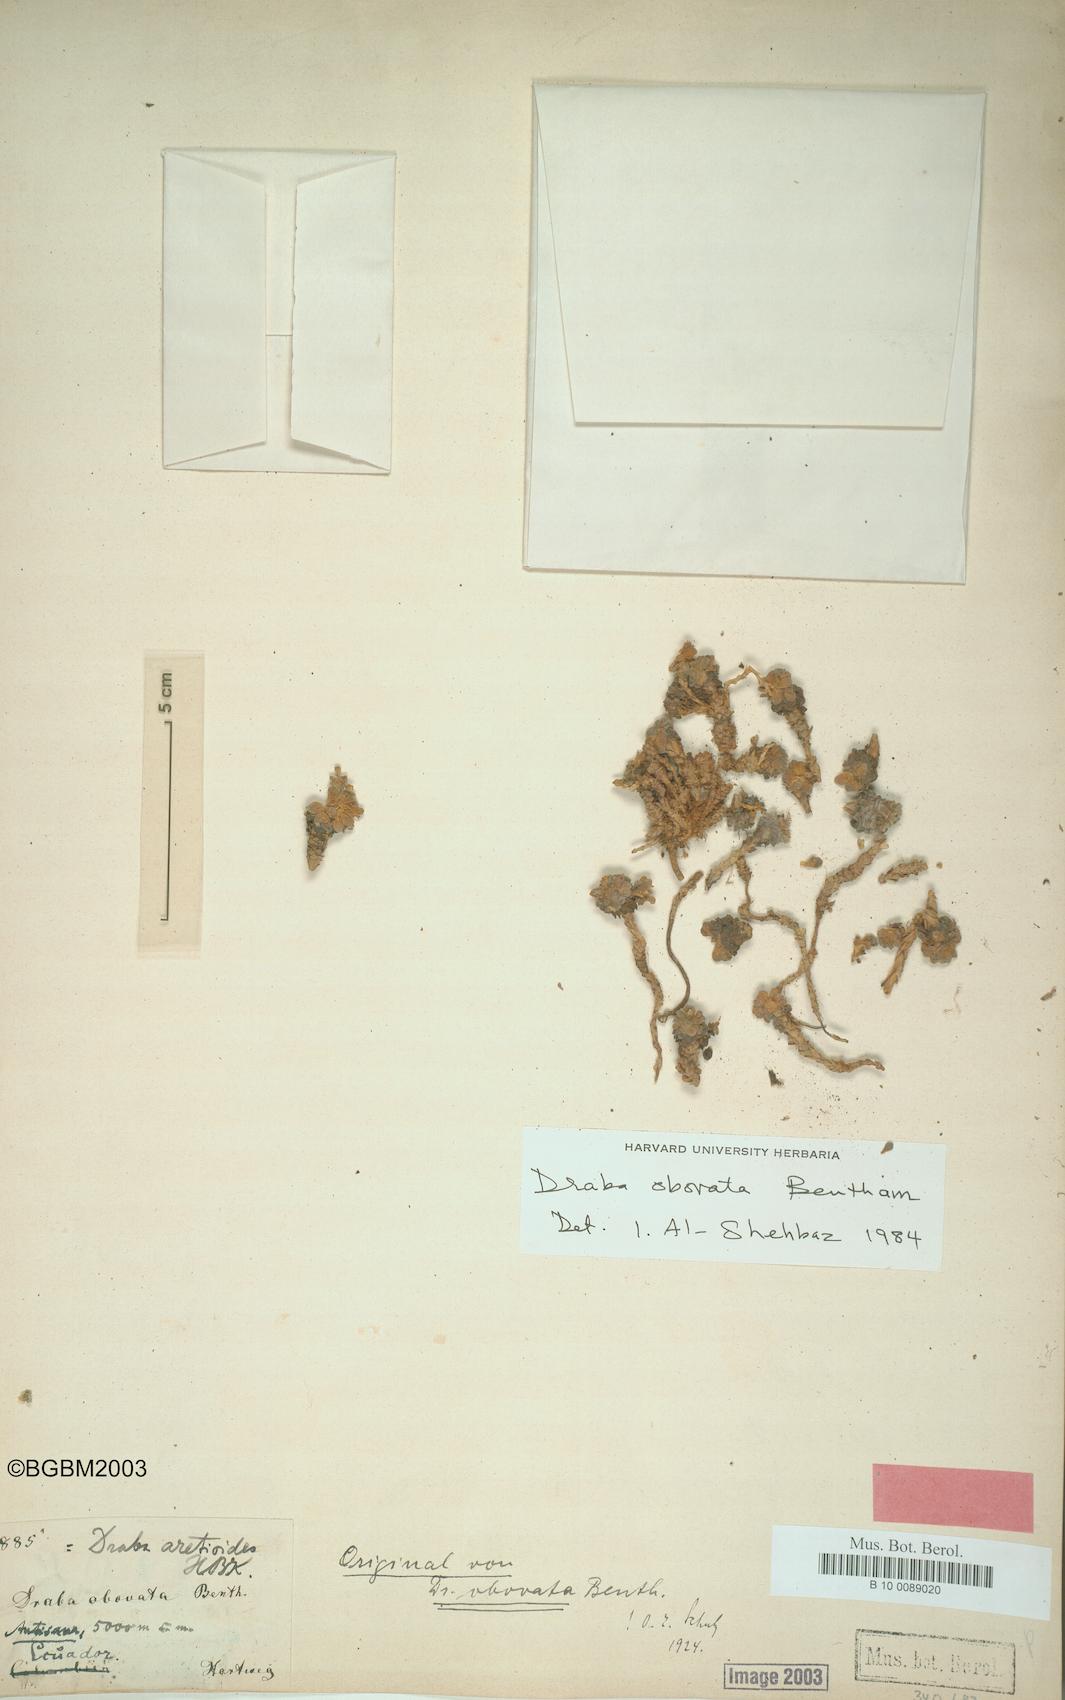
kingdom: Plantae
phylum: Tracheophyta
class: Magnoliopsida
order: Brassicales
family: Brassicaceae
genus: Draba
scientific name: Draba obovata
